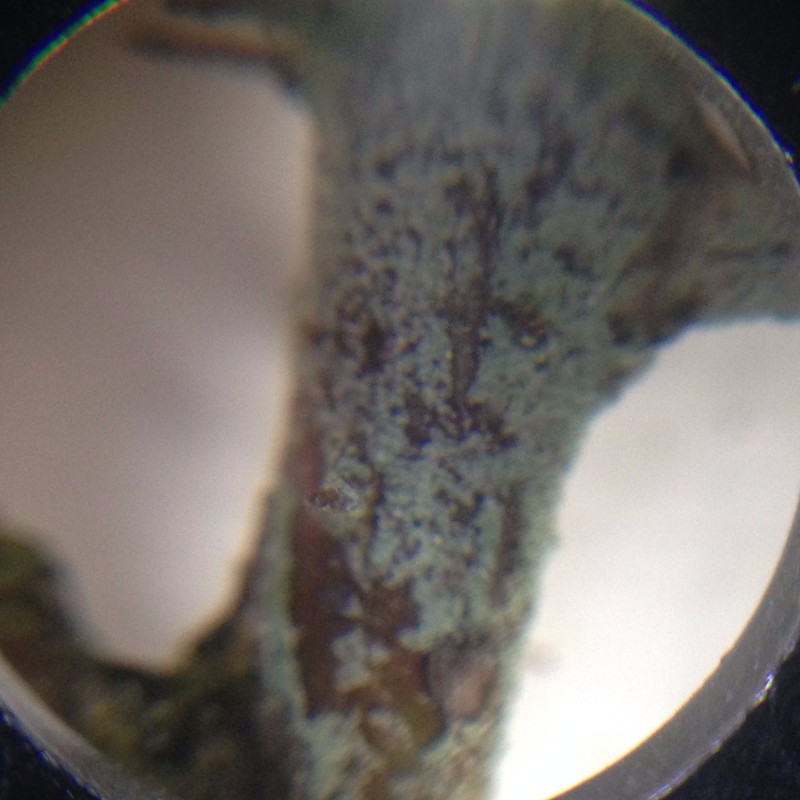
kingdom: Fungi
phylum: Ascomycota
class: Lecanoromycetes
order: Lecanorales
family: Byssolomataceae
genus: Fellhanera
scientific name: Fellhanera bouteillei
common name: flaske-tallerkenlav
